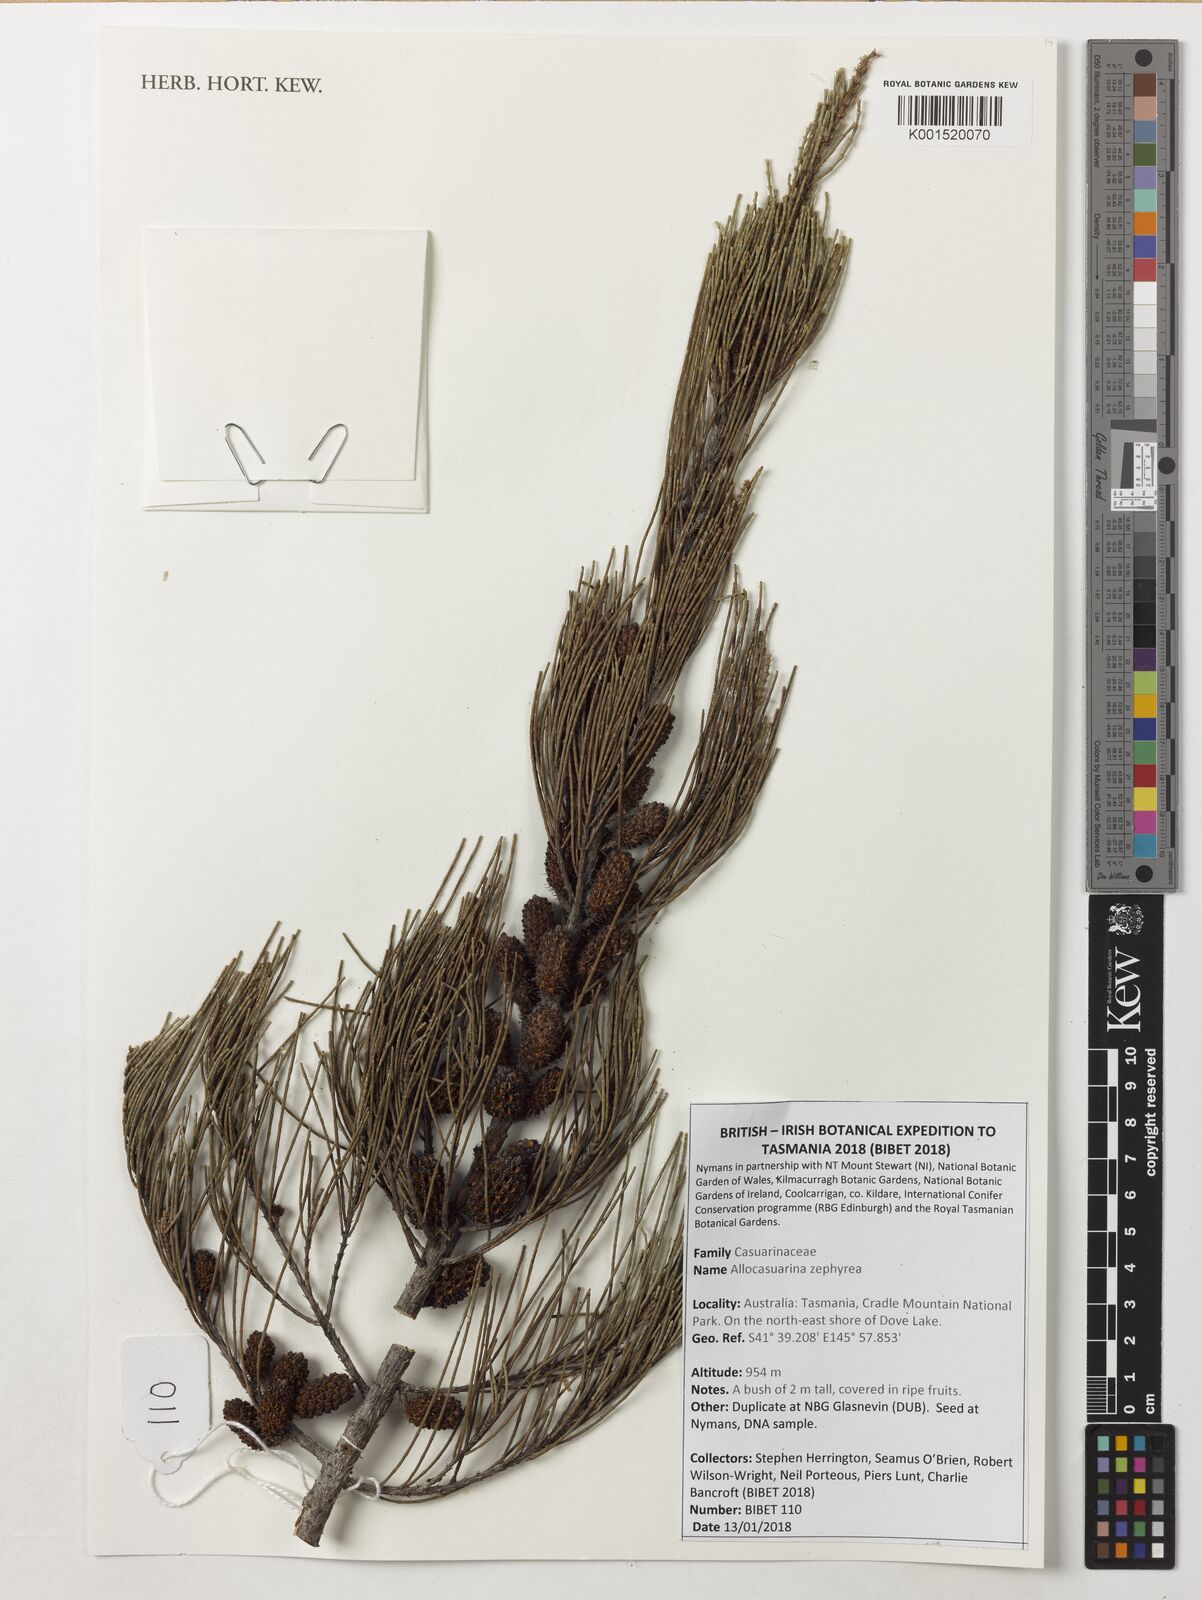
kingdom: Plantae
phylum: Tracheophyta
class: Magnoliopsida
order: Fagales
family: Casuarinaceae
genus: Allocasuarina
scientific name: Allocasuarina zephyrea
